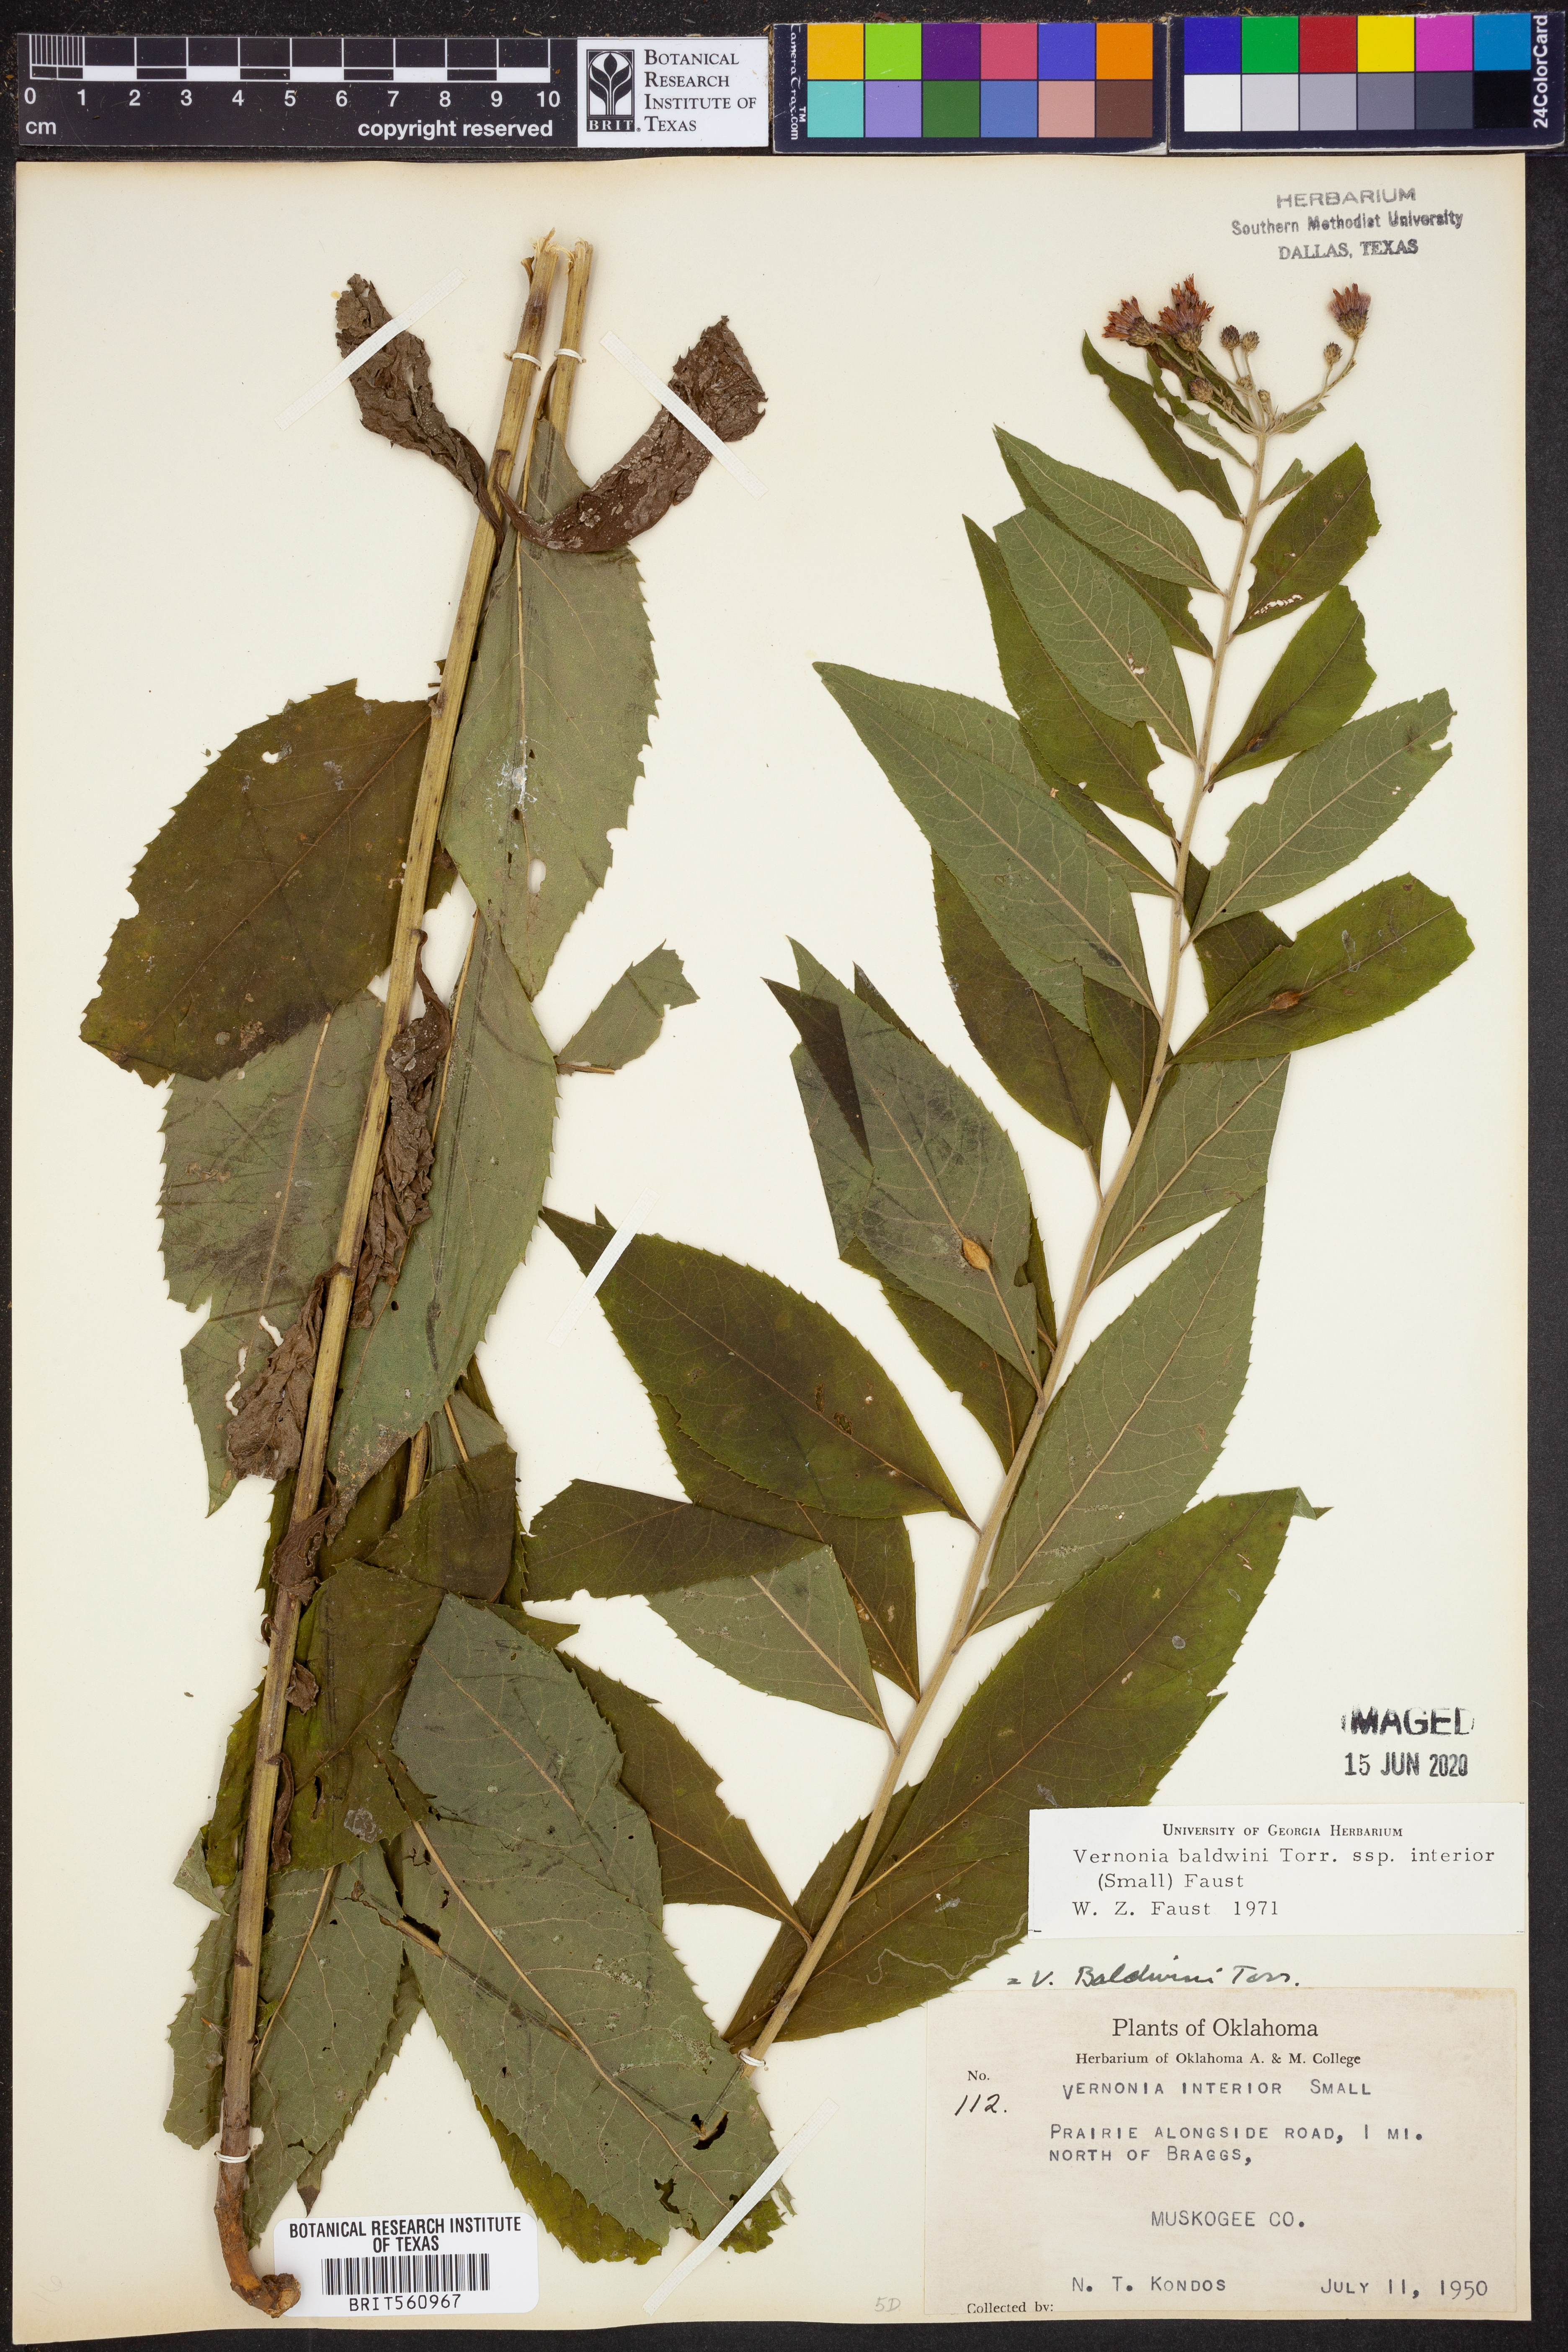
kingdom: Plantae
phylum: Tracheophyta
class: Magnoliopsida
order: Asterales
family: Asteraceae
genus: Vernonia
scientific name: Vernonia baldwinii
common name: Western ironweed
